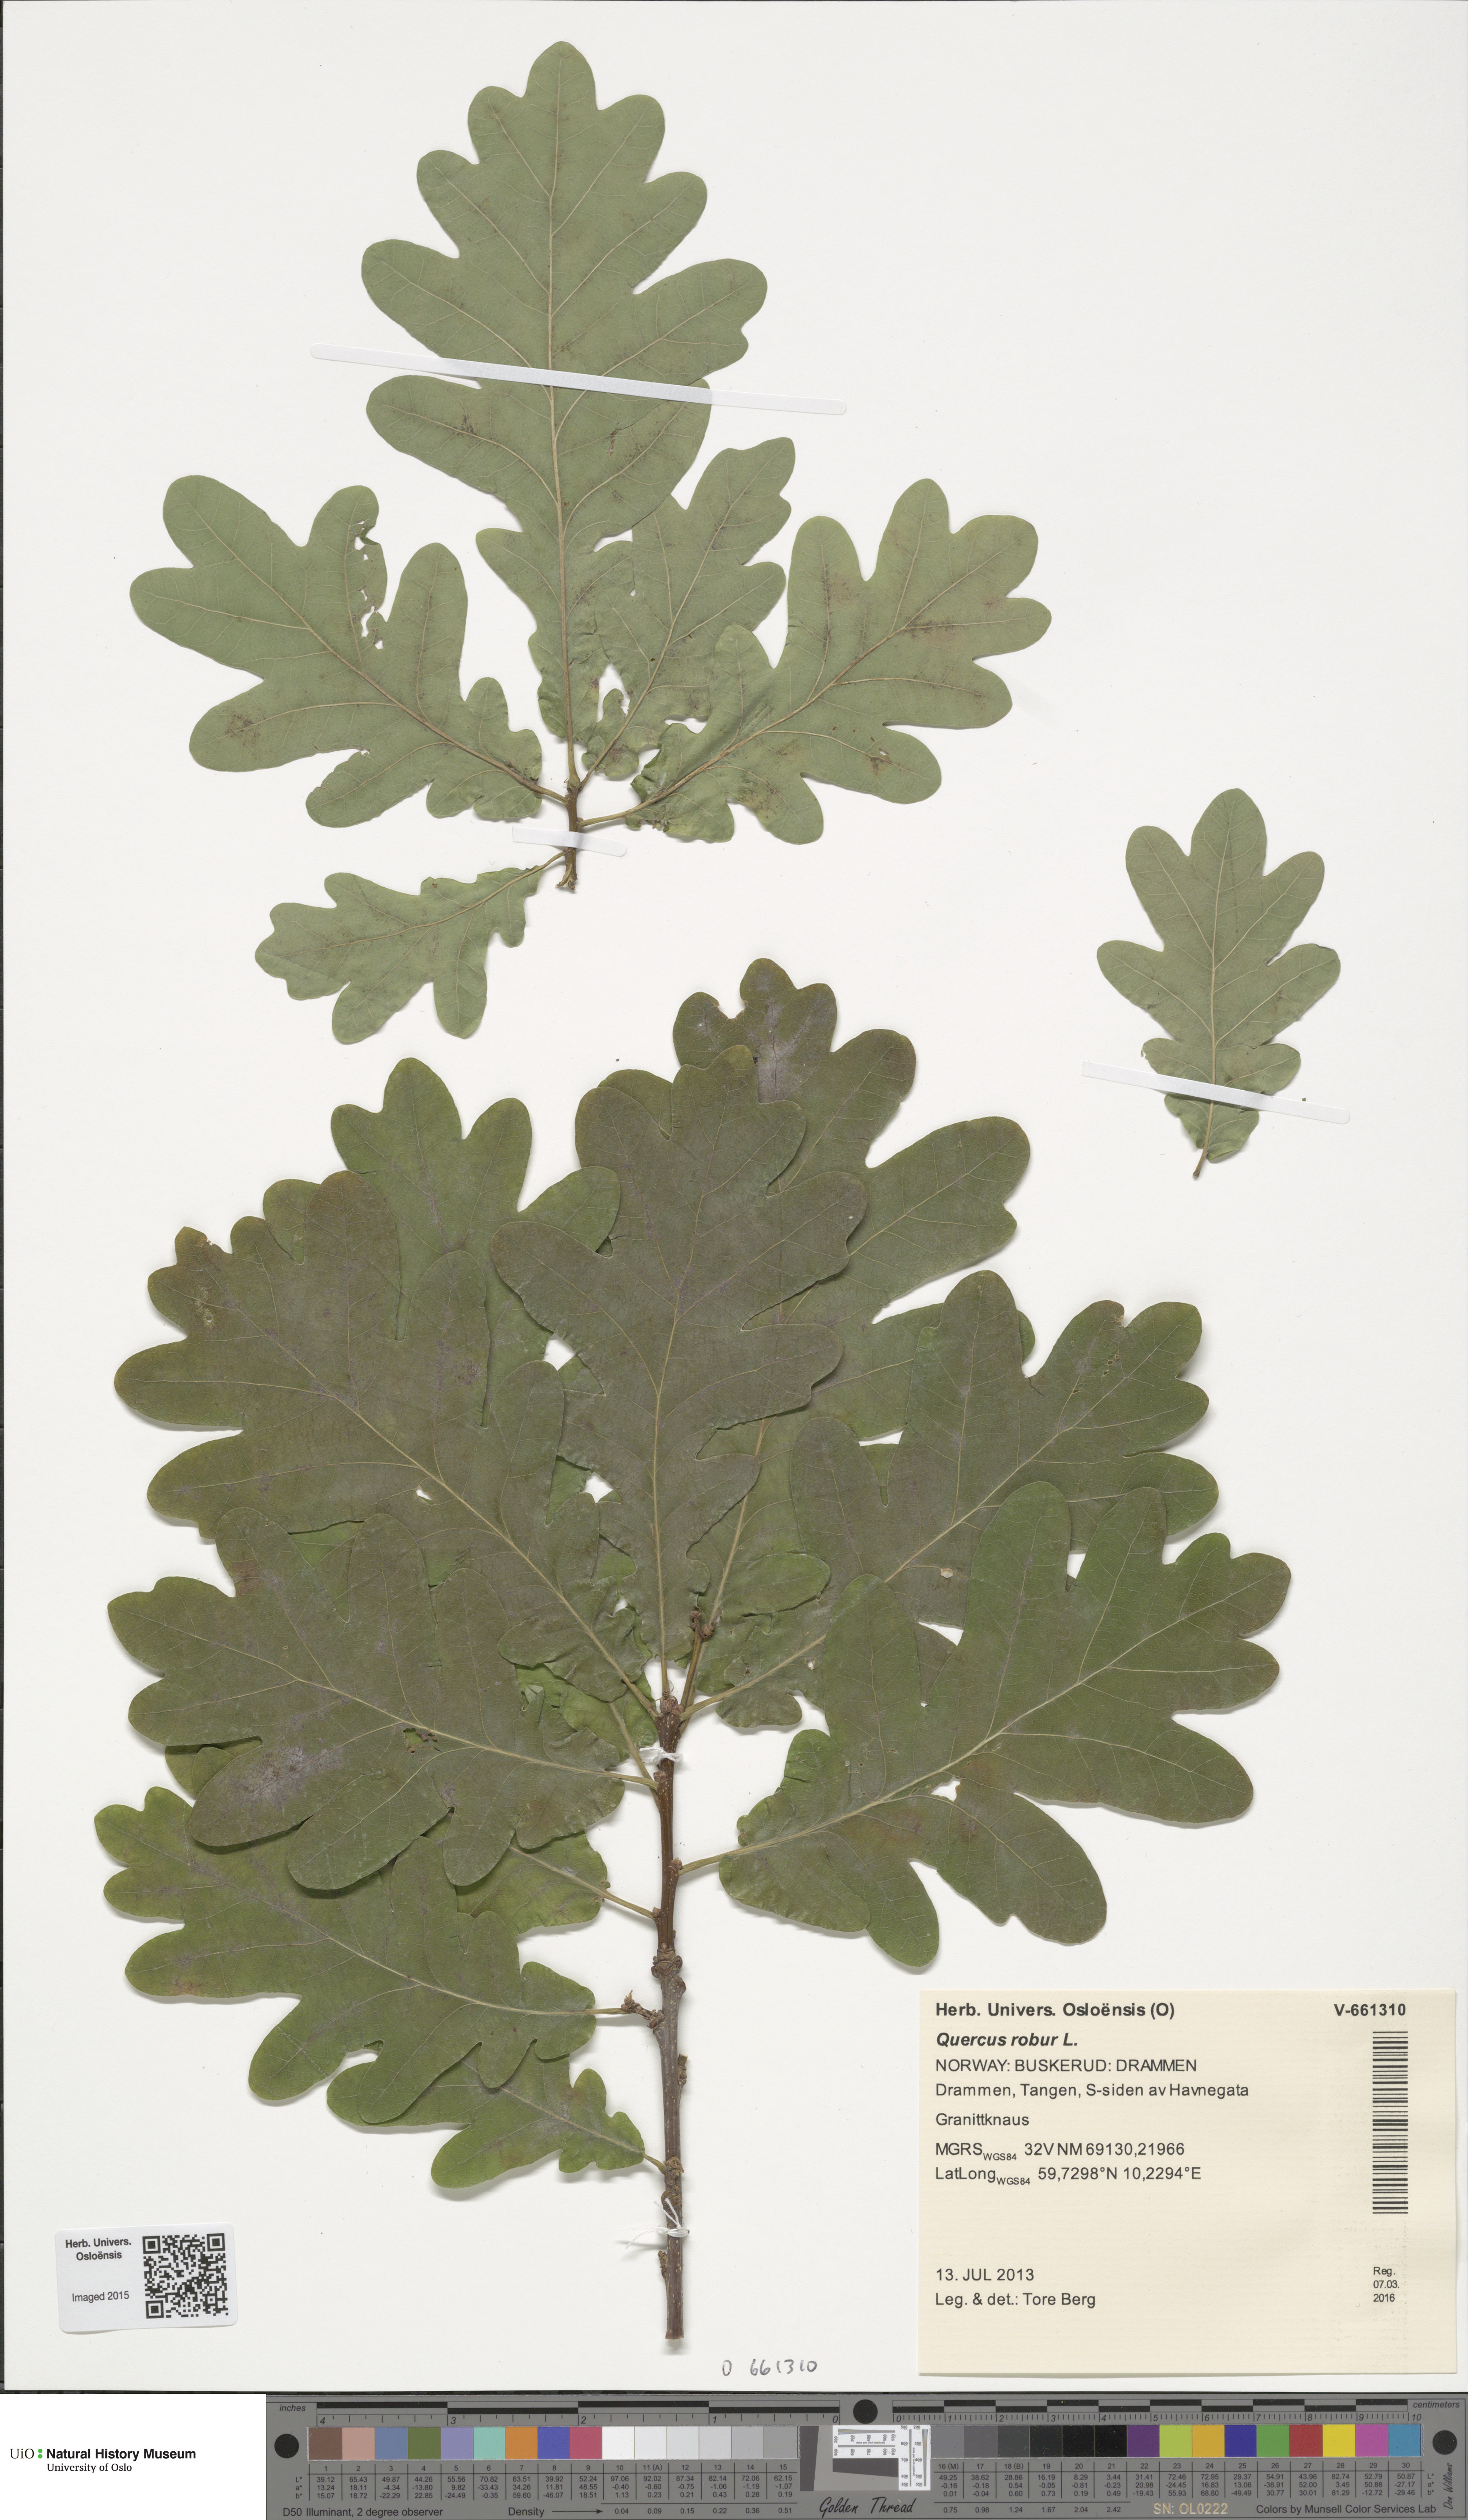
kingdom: Plantae
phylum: Tracheophyta
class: Magnoliopsida
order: Fagales
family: Fagaceae
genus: Quercus
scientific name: Quercus robur
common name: Pedunculate oak
